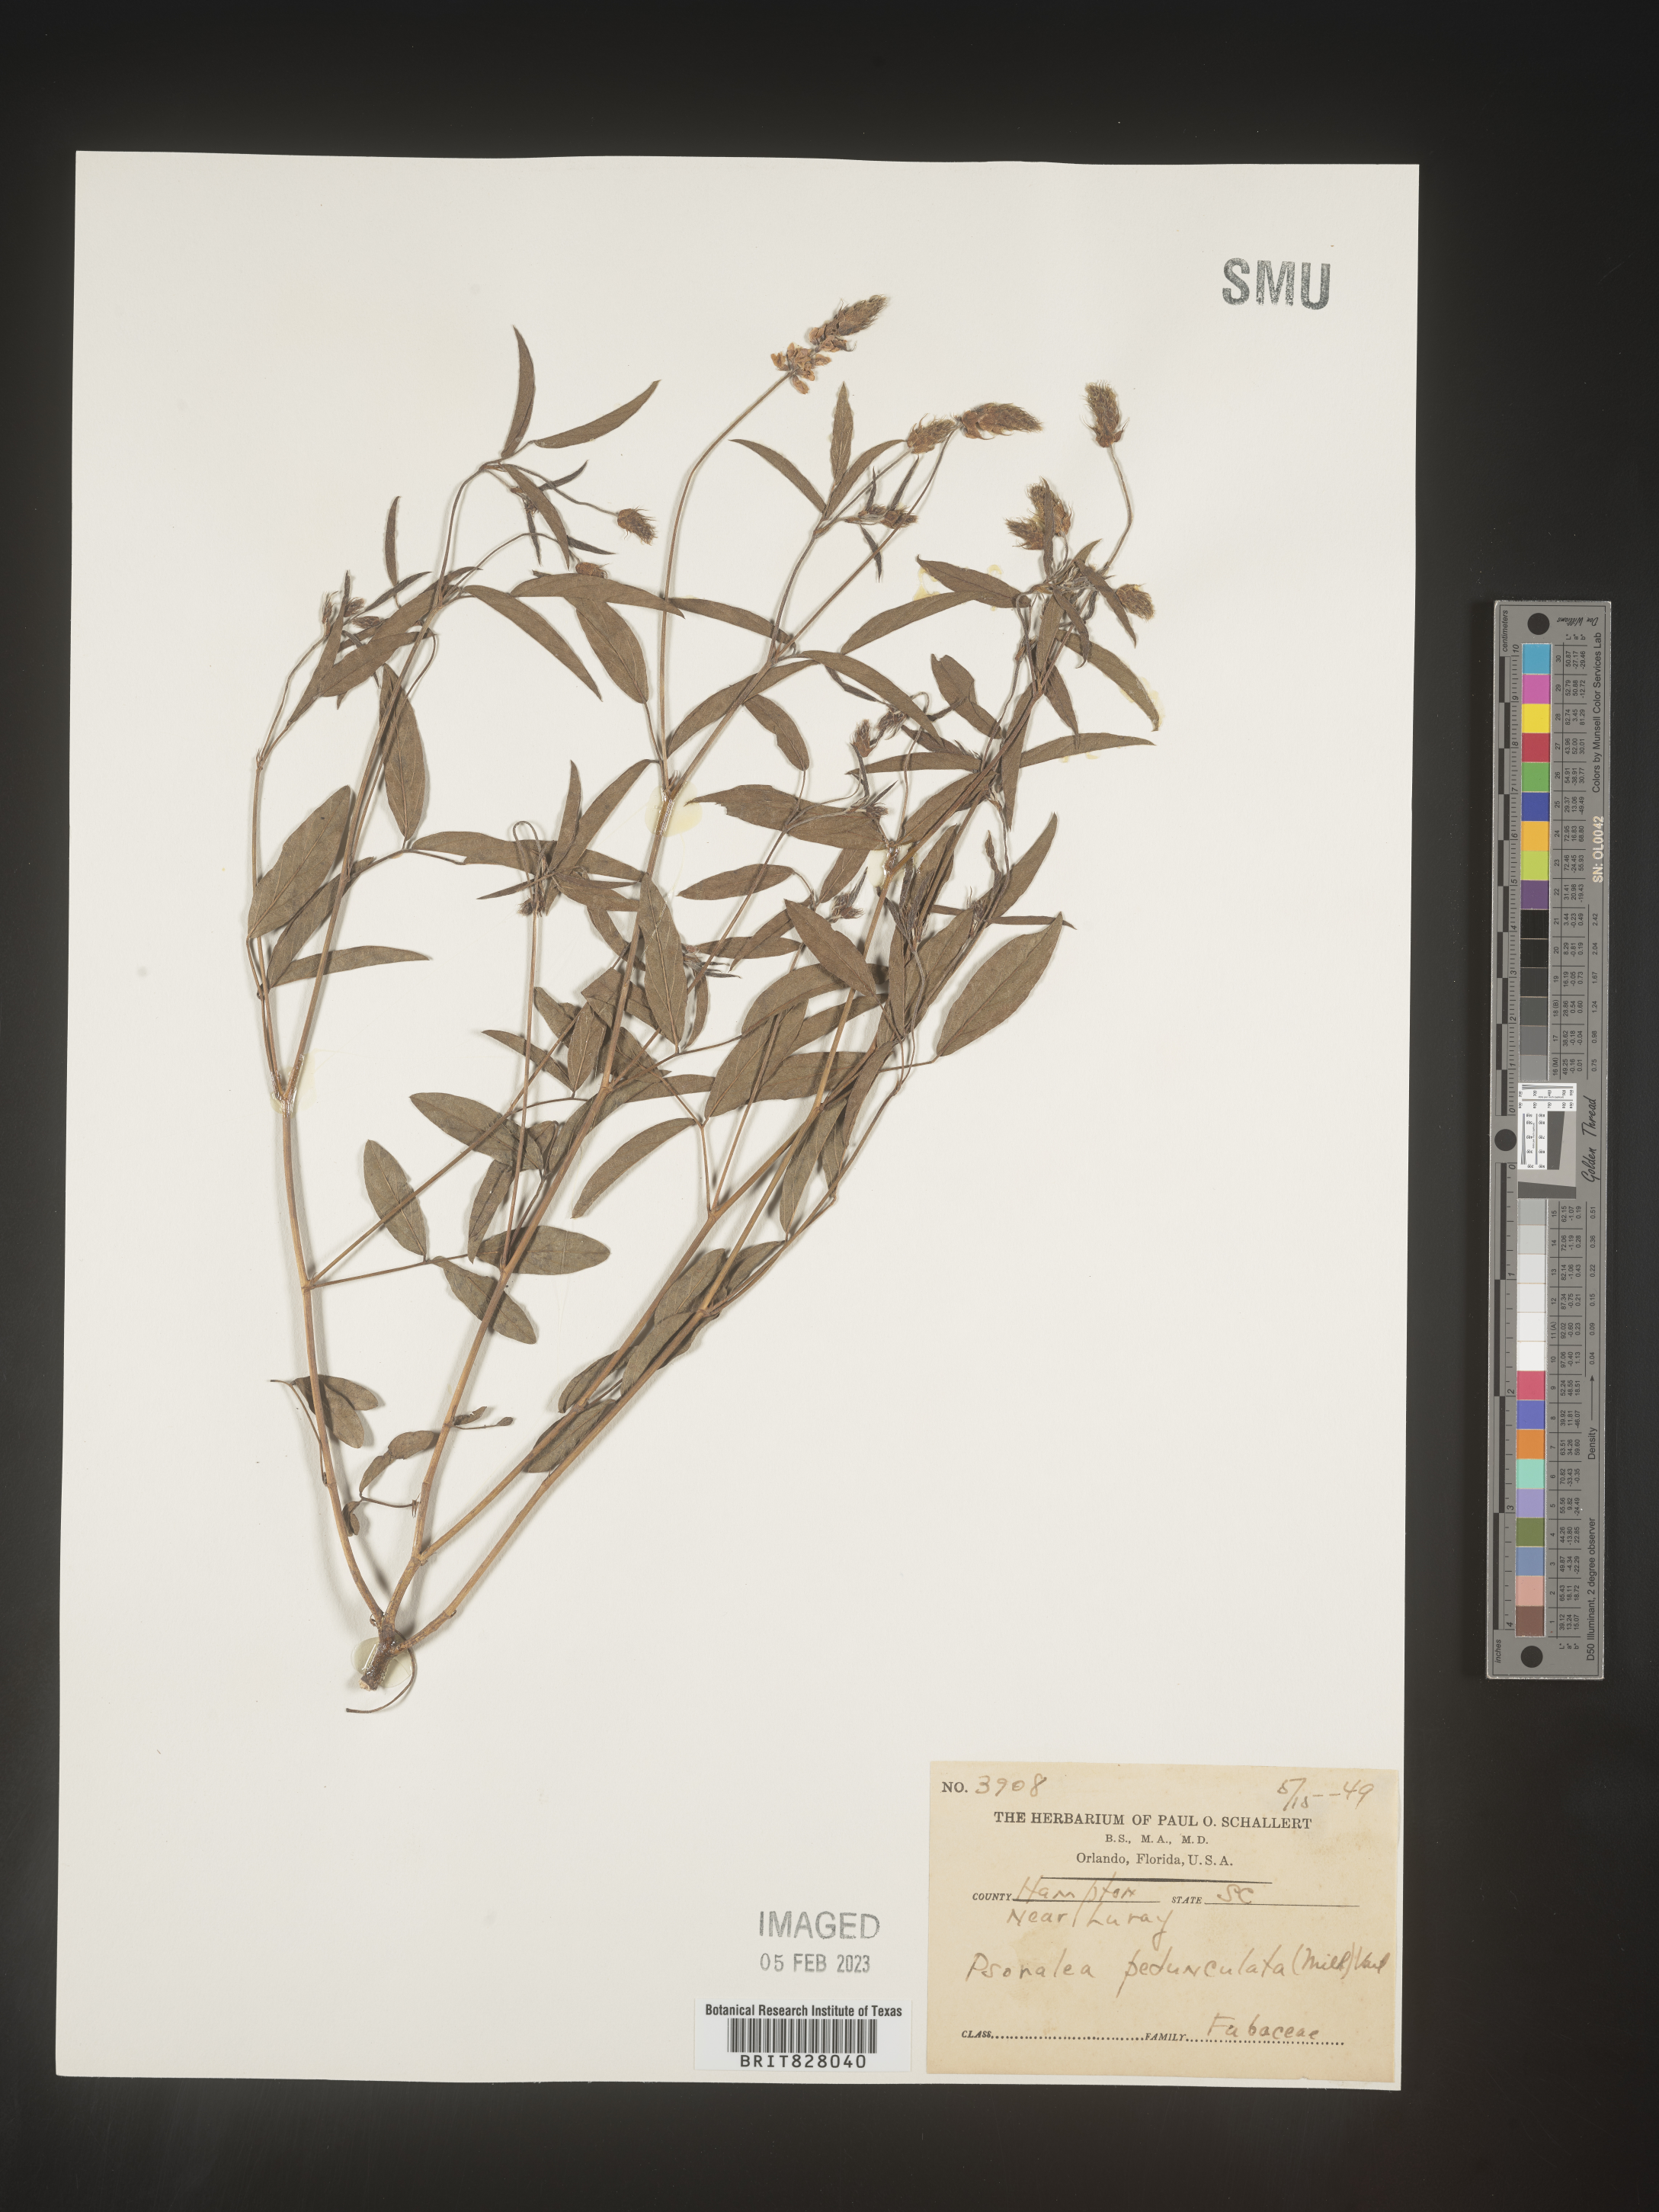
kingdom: Plantae
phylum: Tracheophyta
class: Magnoliopsida
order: Fabales
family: Fabaceae
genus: Orbexilum
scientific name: Orbexilum pedunculatum
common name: Sampson's snakeroot
